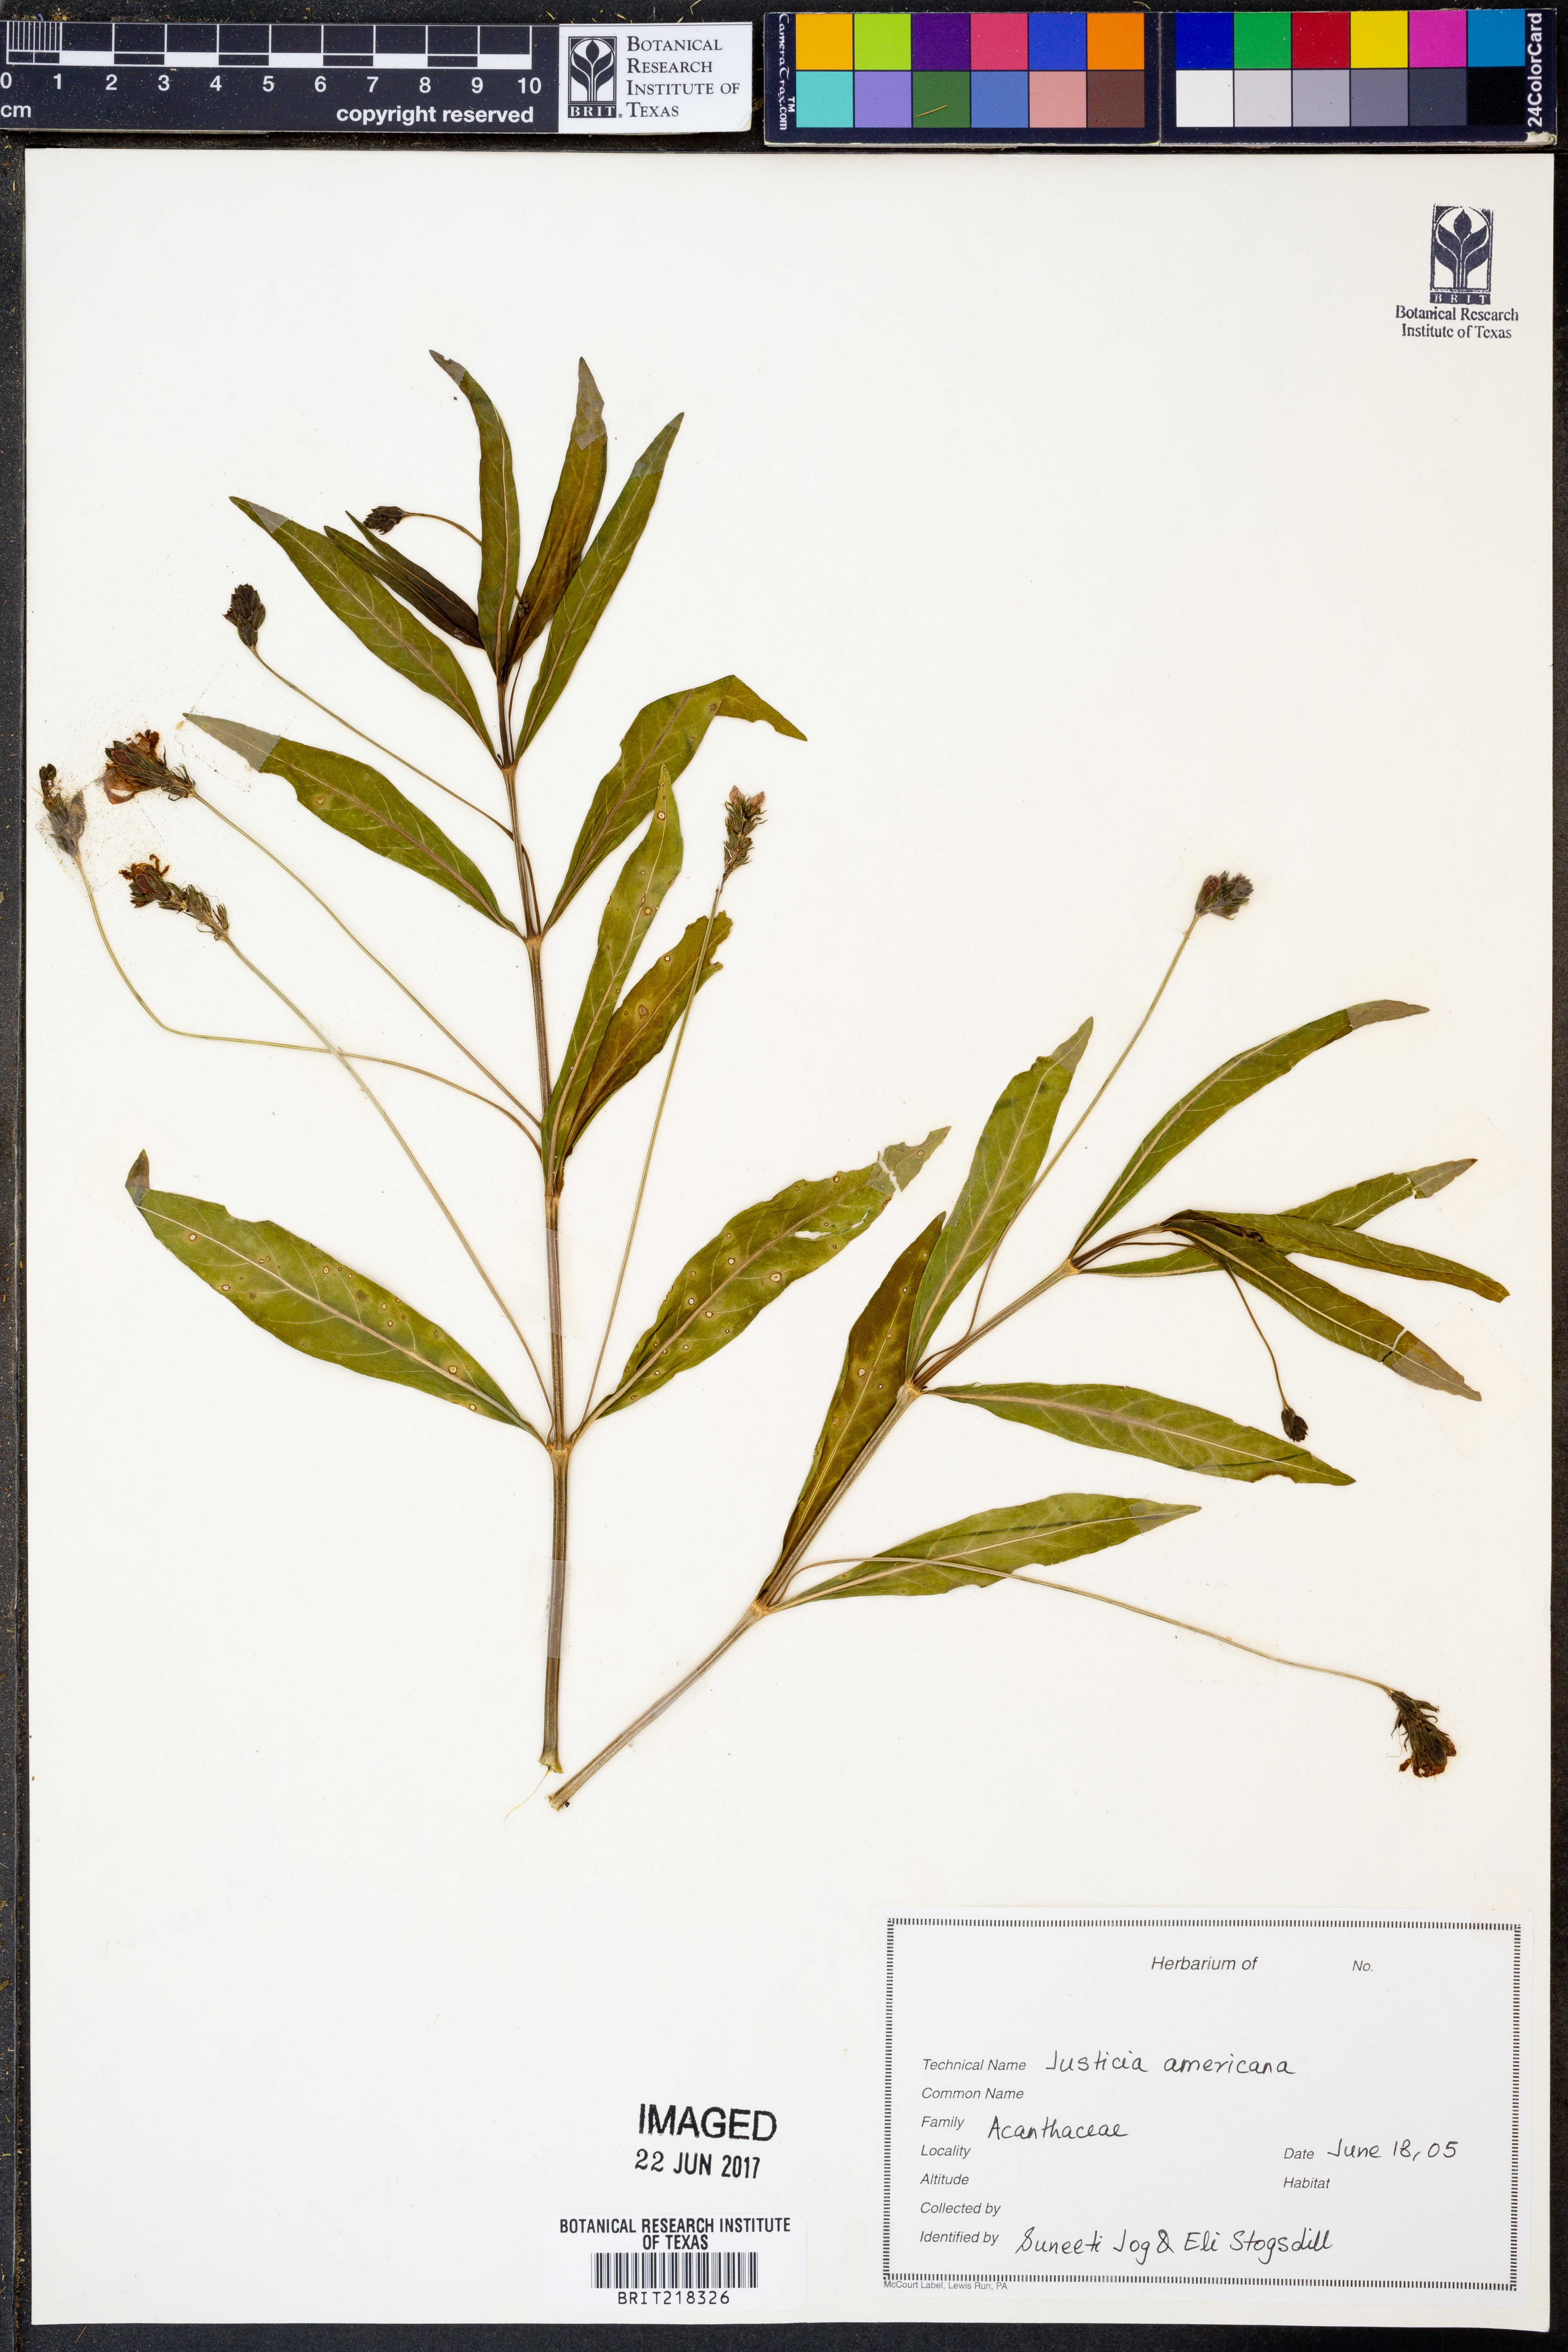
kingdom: Plantae
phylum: Tracheophyta
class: Magnoliopsida
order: Lamiales
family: Acanthaceae
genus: Dianthera
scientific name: Dianthera americana
